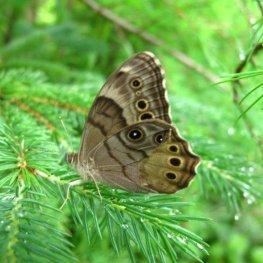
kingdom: Animalia
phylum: Arthropoda
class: Insecta
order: Lepidoptera
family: Nymphalidae
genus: Lethe
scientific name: Lethe anthedon
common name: Northern Pearly-Eye
